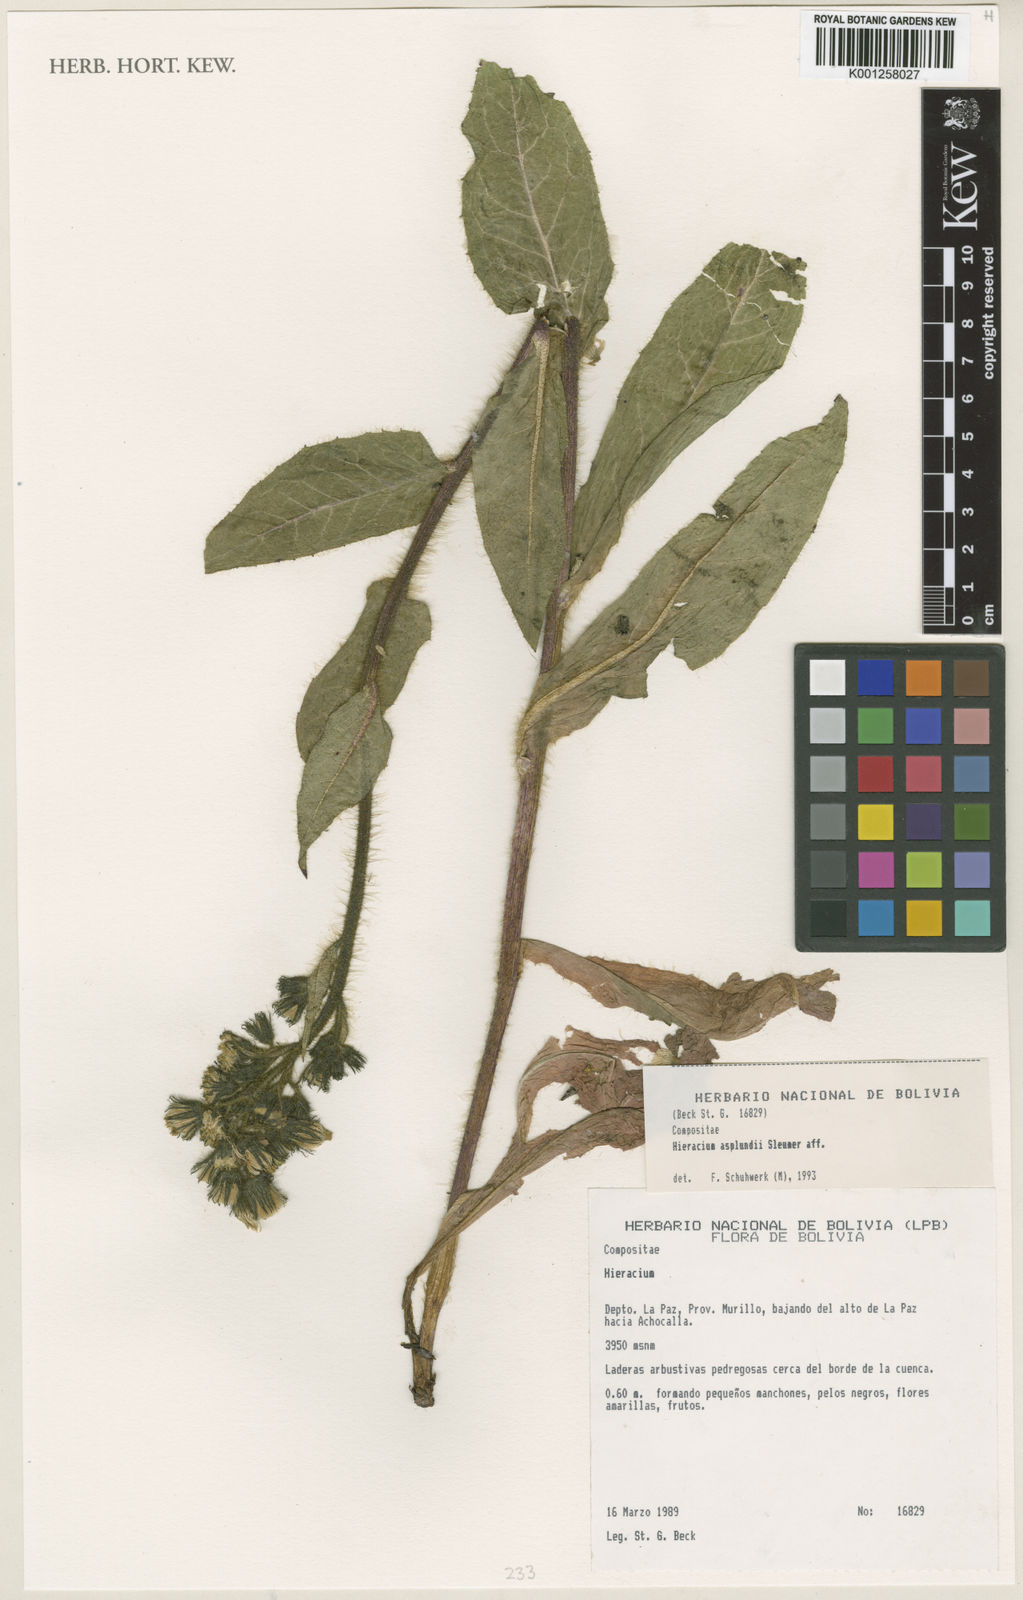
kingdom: Plantae
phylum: Tracheophyta
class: Magnoliopsida
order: Asterales
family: Asteraceae
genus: Hieracium
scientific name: Hieracium asplundii
